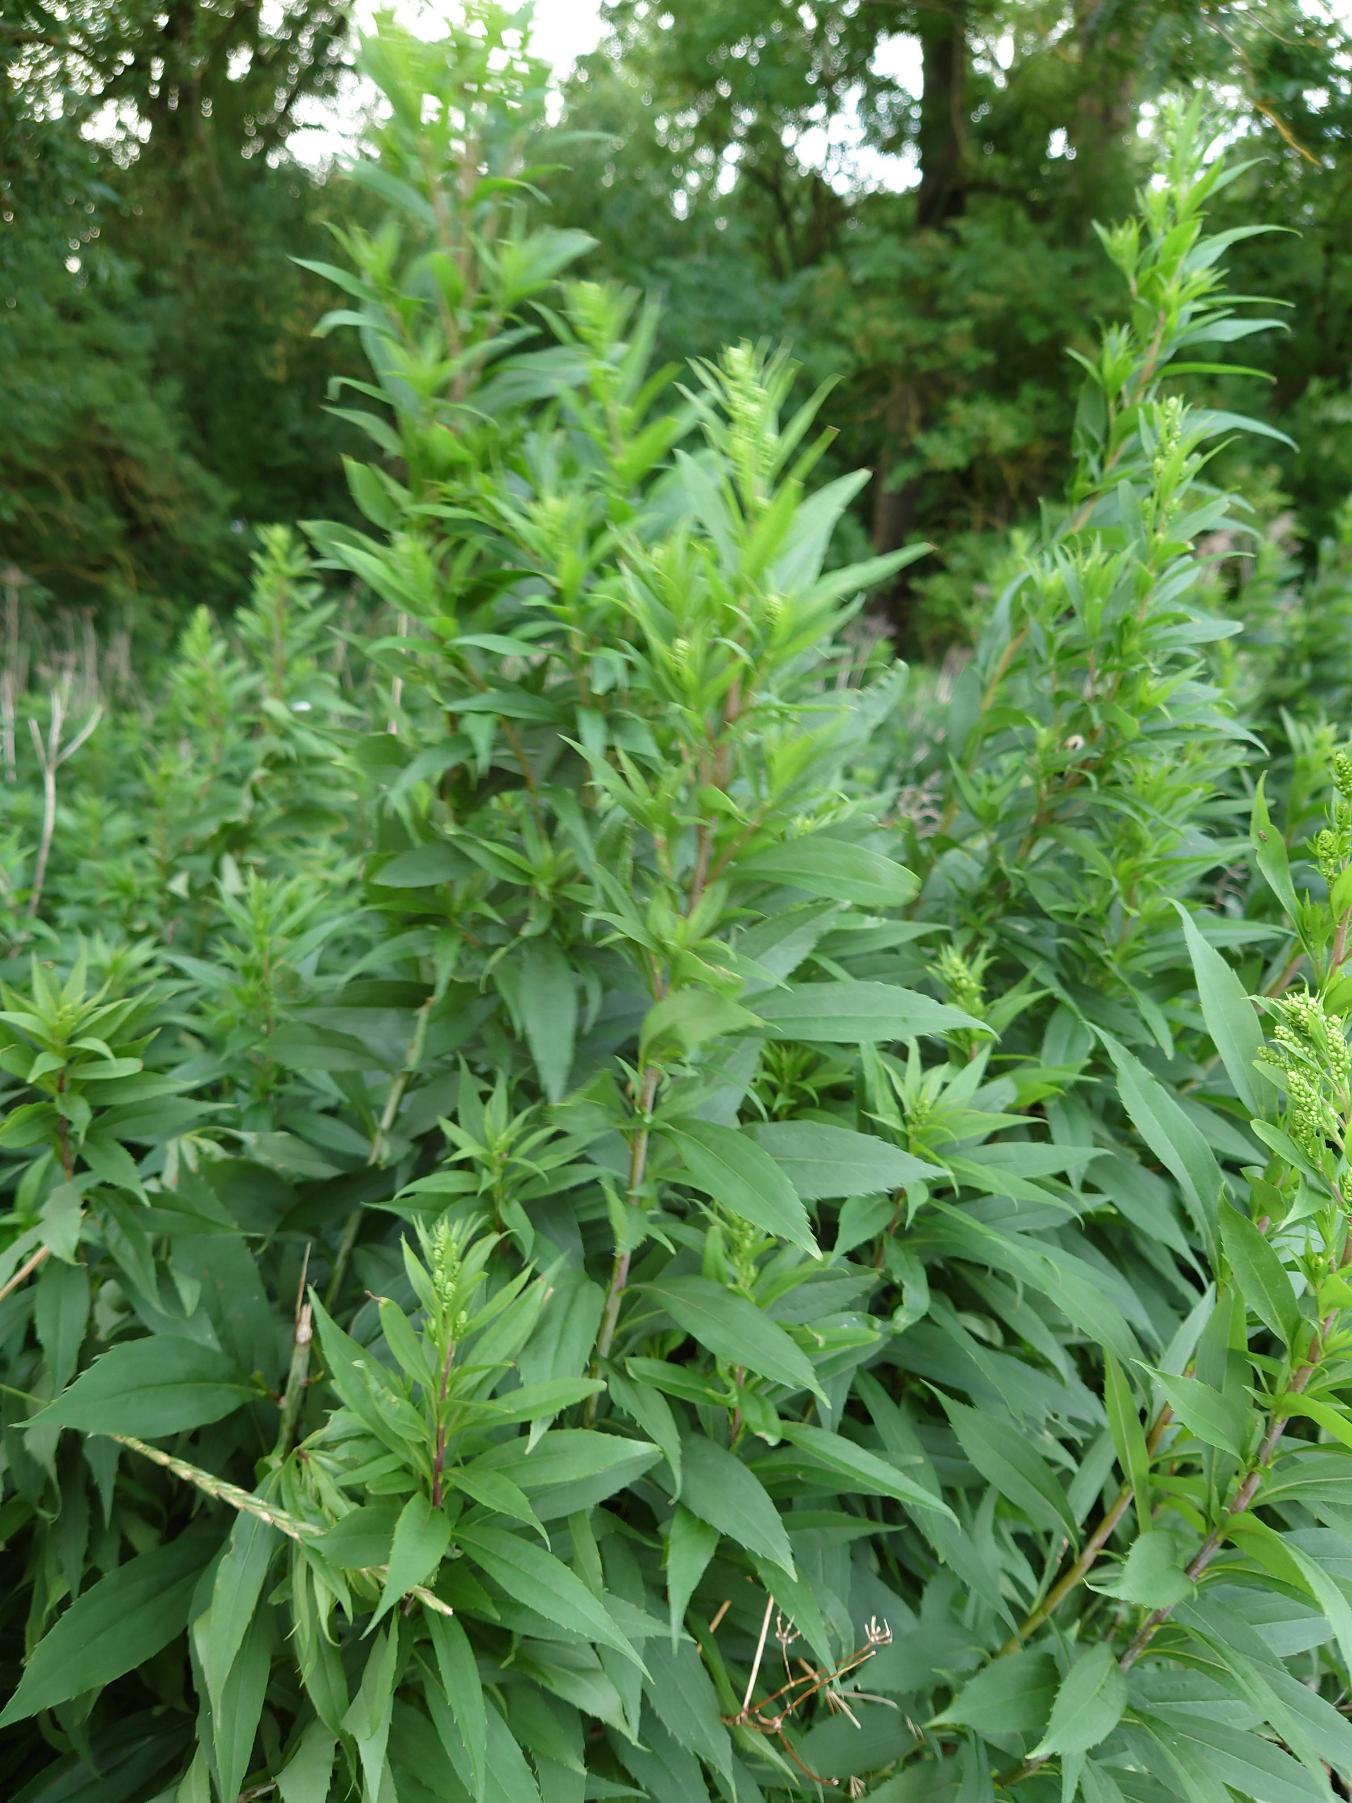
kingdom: Plantae
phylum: Tracheophyta
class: Magnoliopsida
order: Asterales
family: Asteraceae
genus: Solidago
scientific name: Solidago gigantea
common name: Sildig gyldenris
